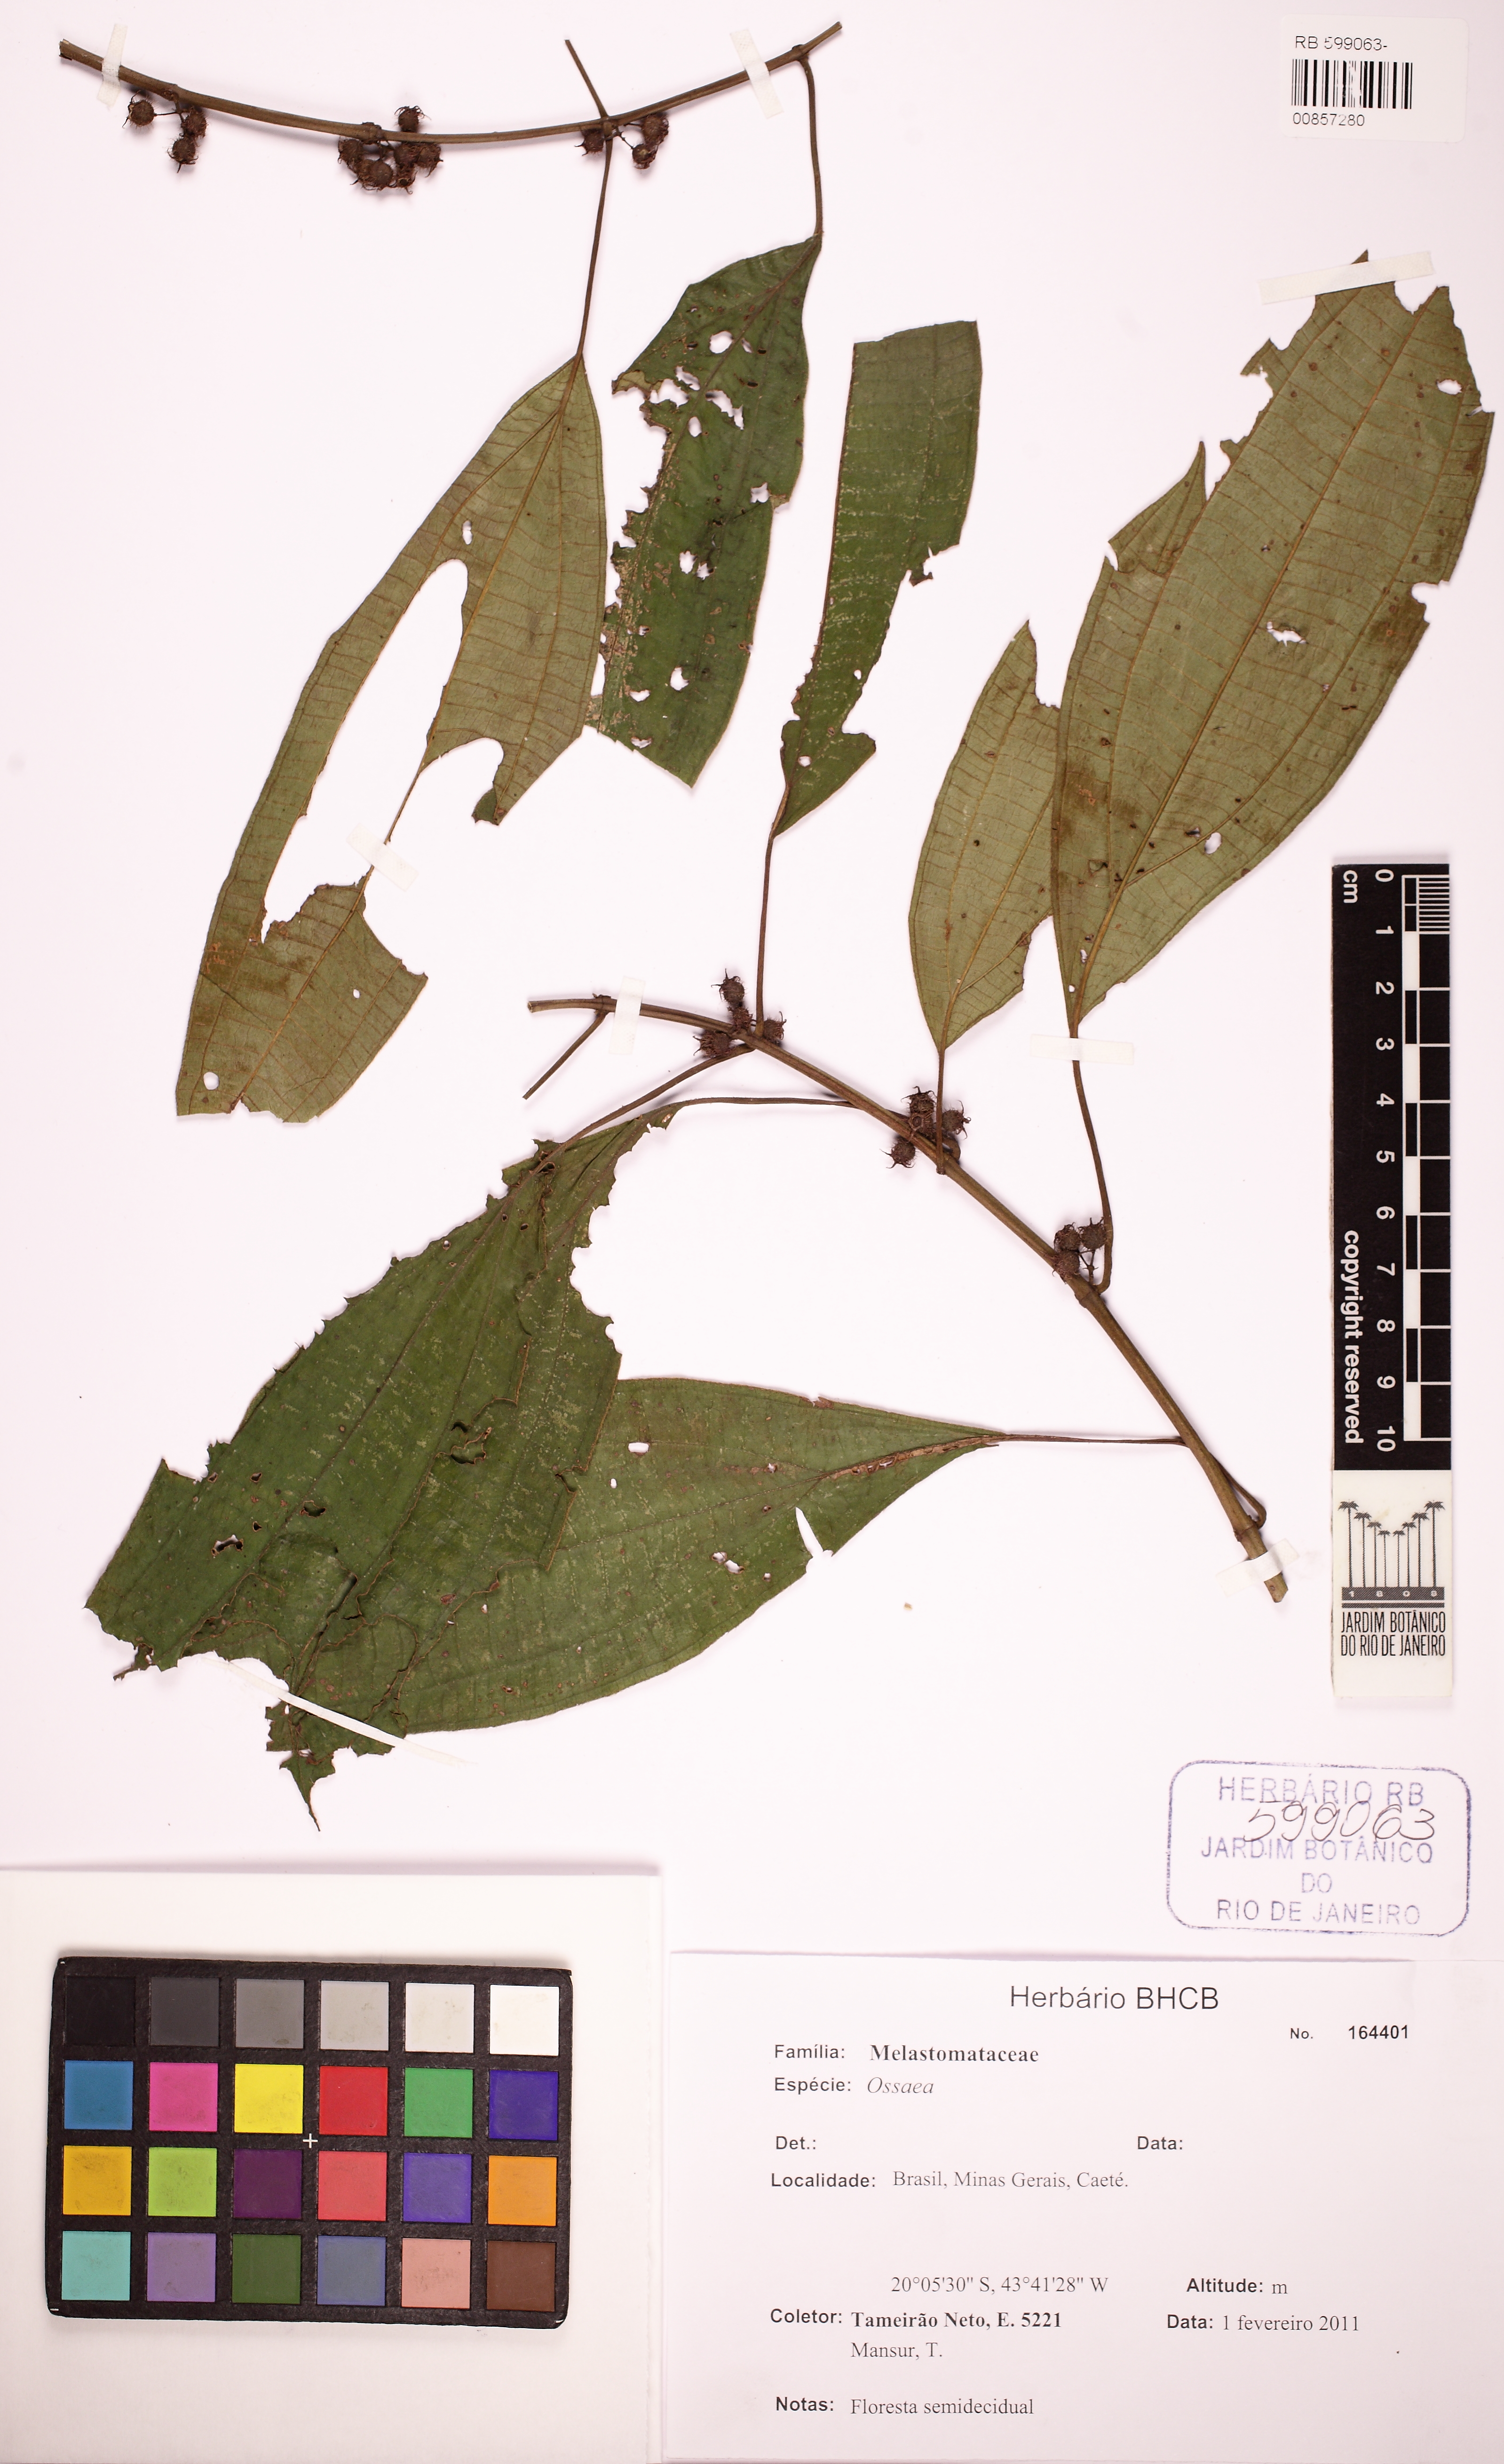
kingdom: Plantae
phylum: Tracheophyta
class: Magnoliopsida
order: Myrtales
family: Melastomataceae
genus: Ossaea
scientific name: Ossaea
